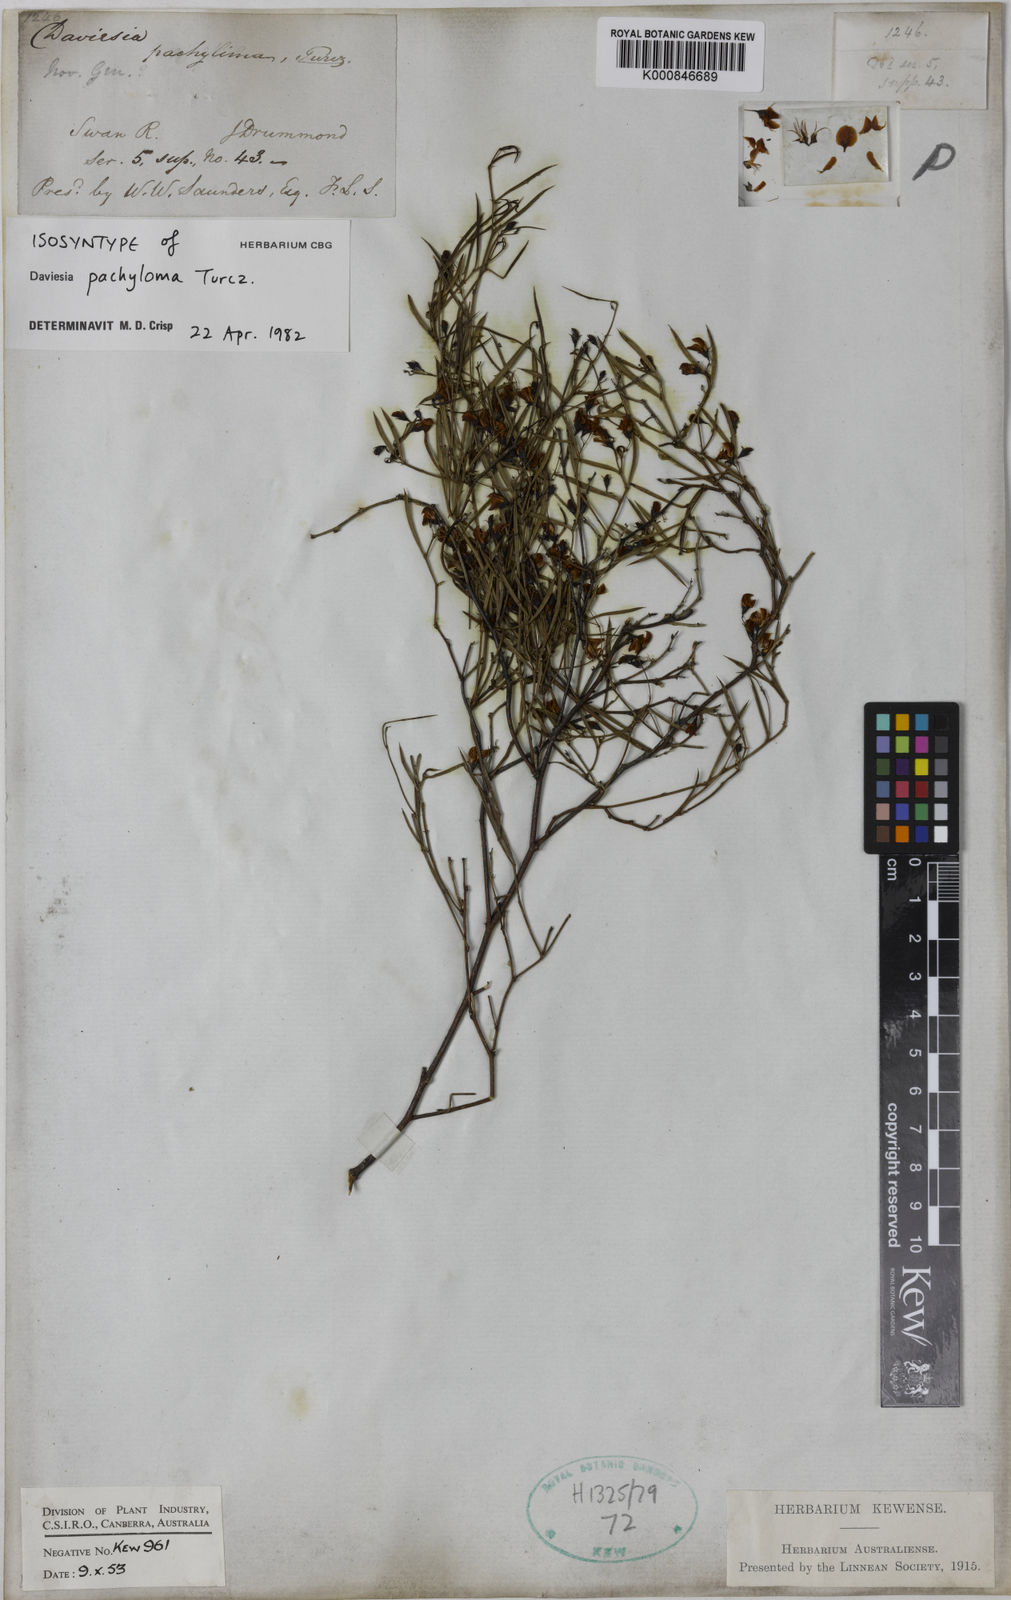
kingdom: Plantae
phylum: Tracheophyta
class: Magnoliopsida
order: Fabales
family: Fabaceae
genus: Daviesia
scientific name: Daviesia
